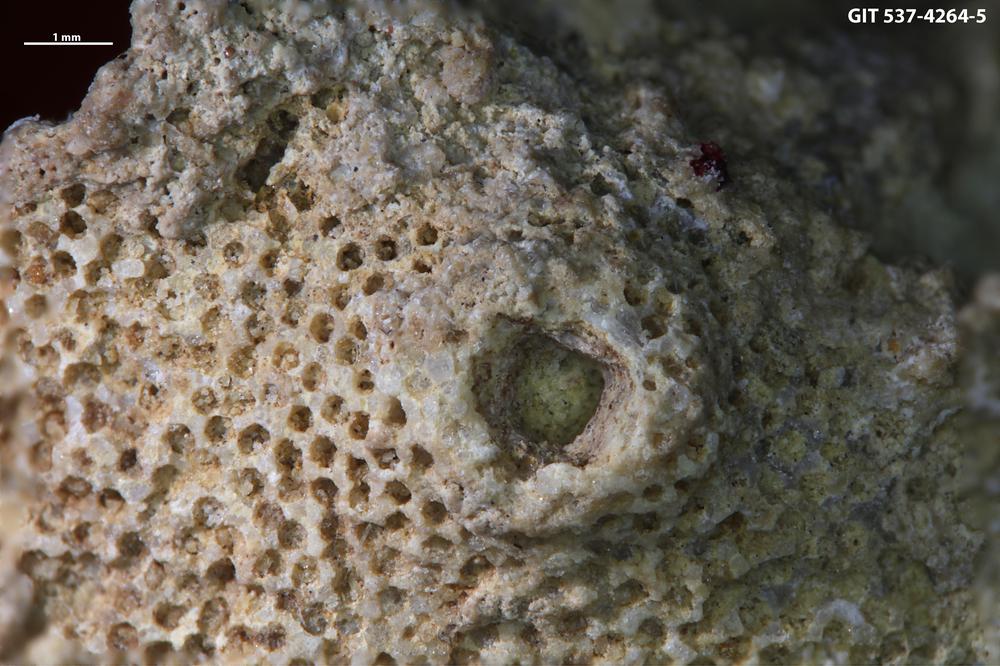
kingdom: Animalia
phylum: Cnidaria
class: Scyphozoa
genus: Climacoconus
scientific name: Climacoconus
